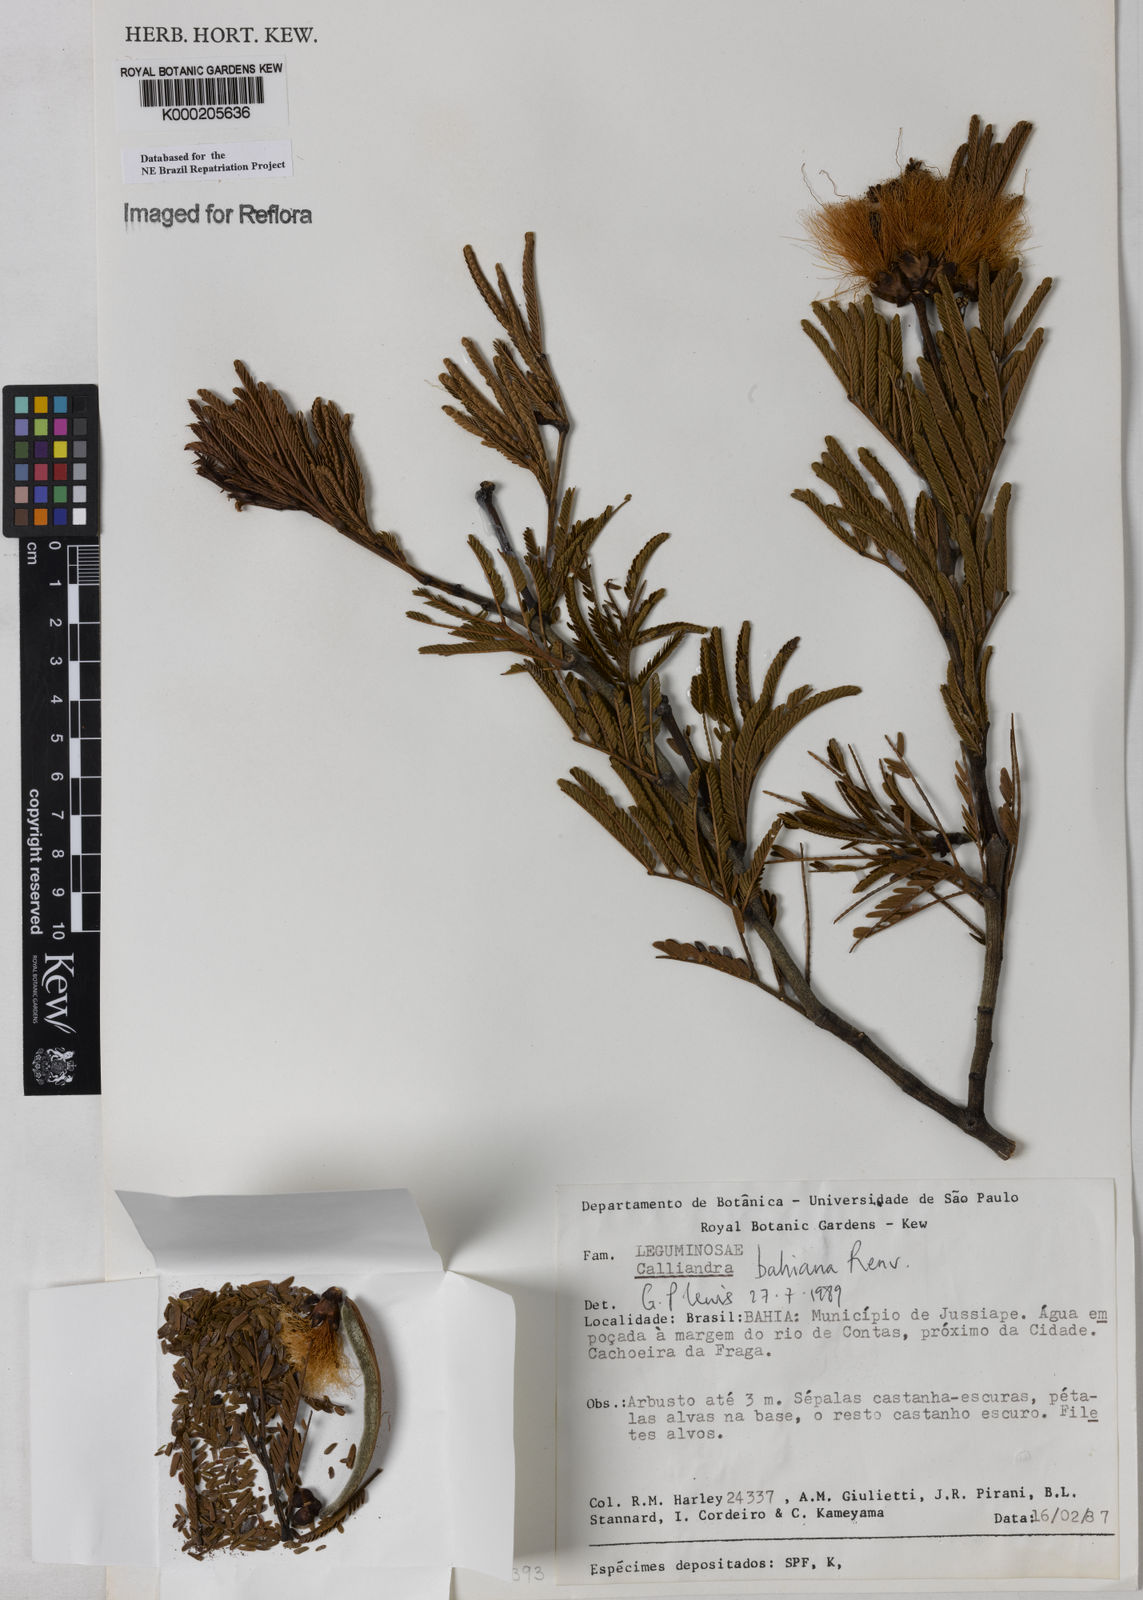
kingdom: Plantae
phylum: Tracheophyta
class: Magnoliopsida
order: Fabales
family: Fabaceae
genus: Calliandra
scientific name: Calliandra bahiana
